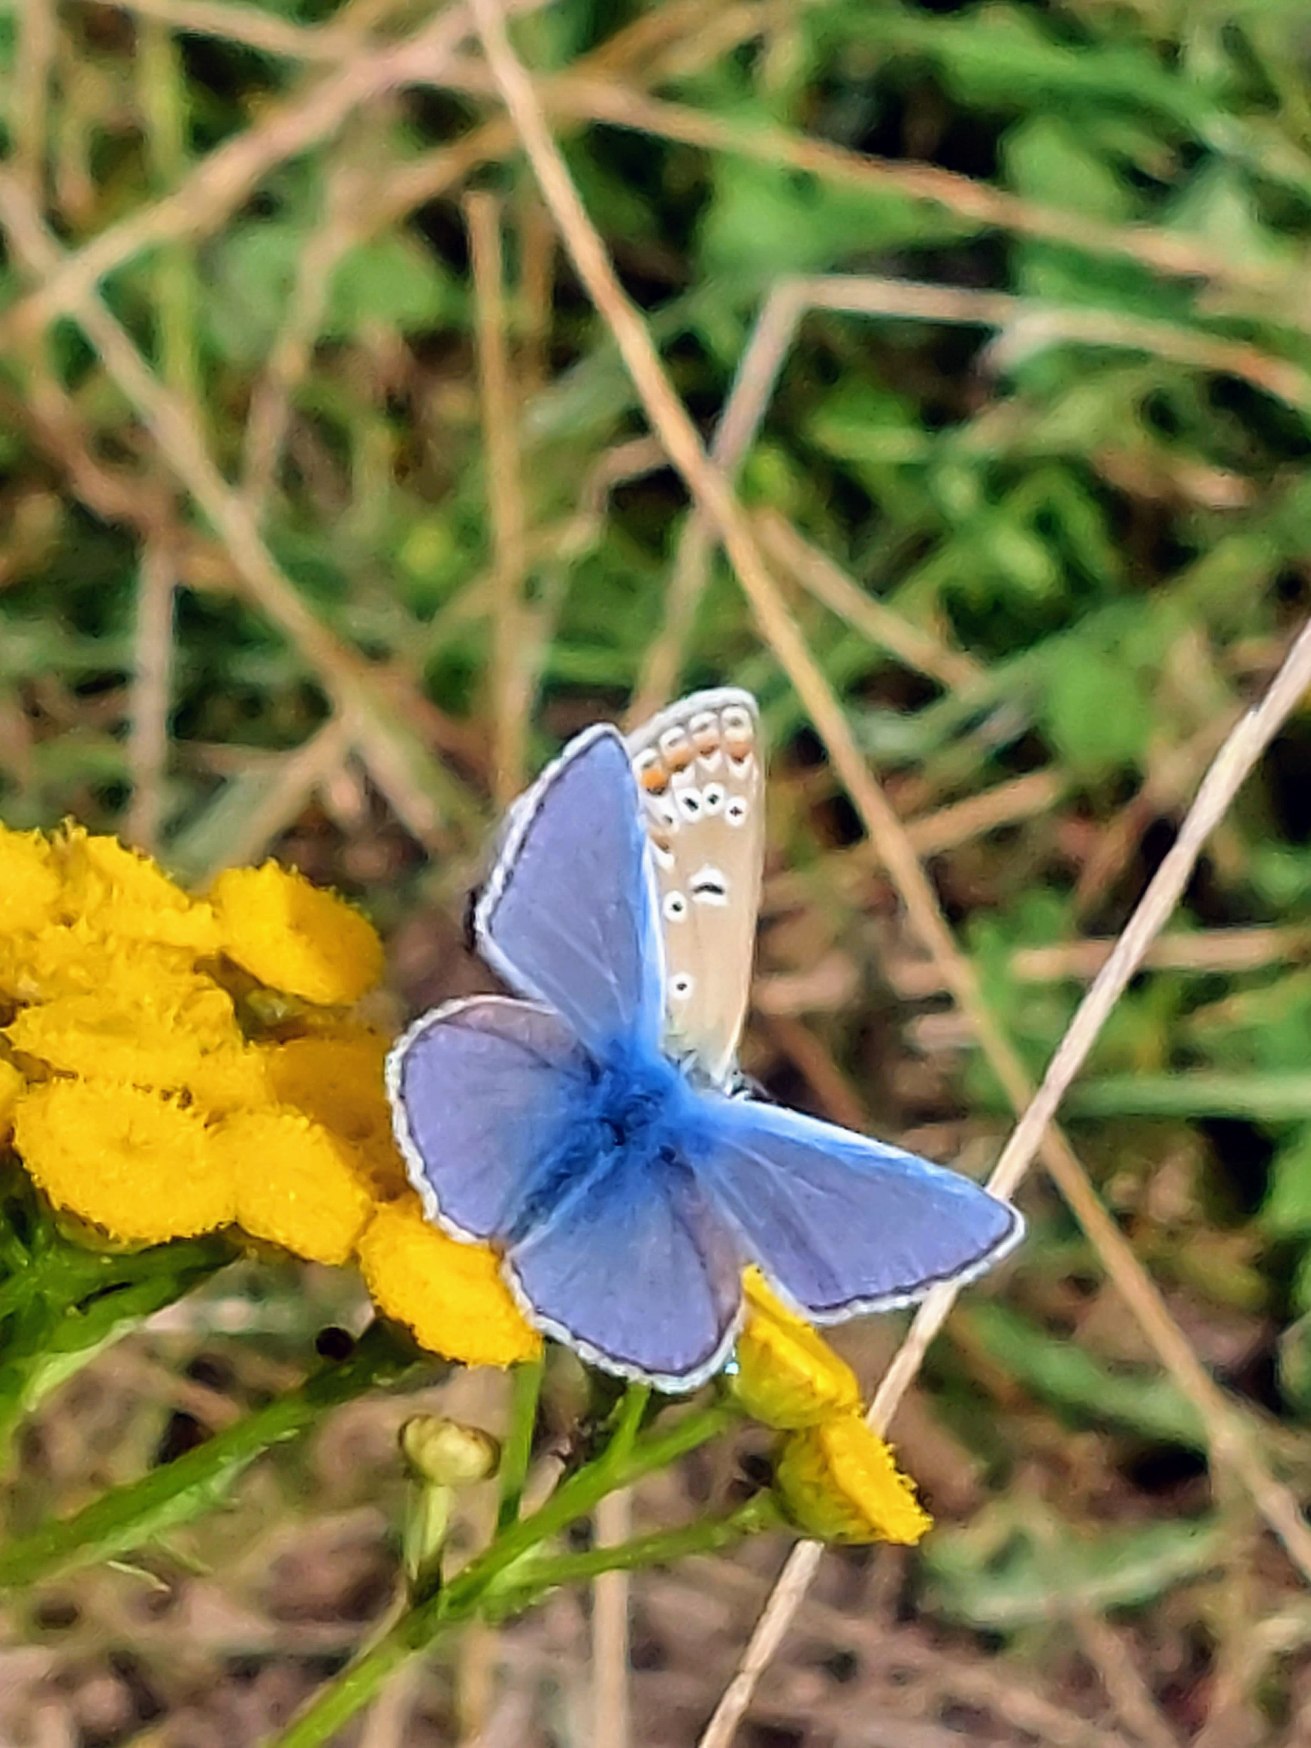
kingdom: Animalia
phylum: Arthropoda
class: Insecta
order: Lepidoptera
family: Lycaenidae
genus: Polyommatus
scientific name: Polyommatus icarus
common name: Almindelig blåfugl
